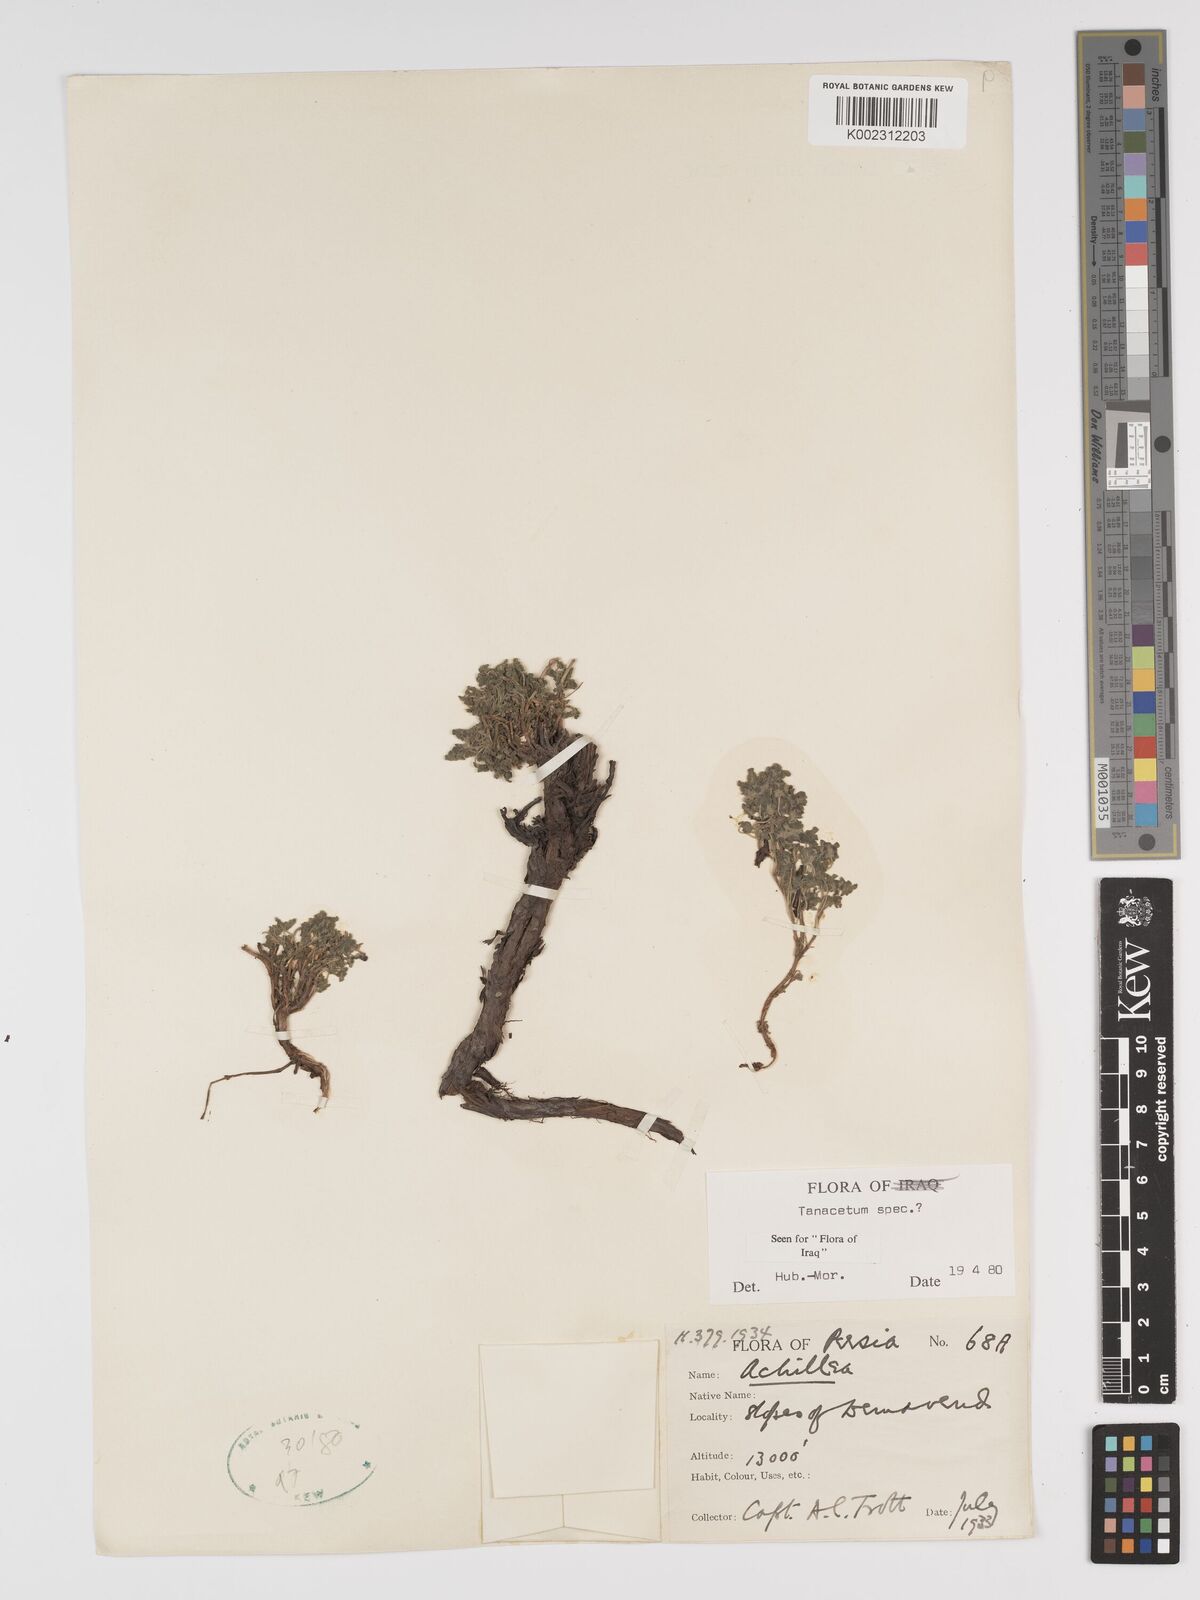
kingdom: Plantae
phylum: Tracheophyta
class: Magnoliopsida
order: Asterales
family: Asteraceae
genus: Tanacetum
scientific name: Tanacetum
